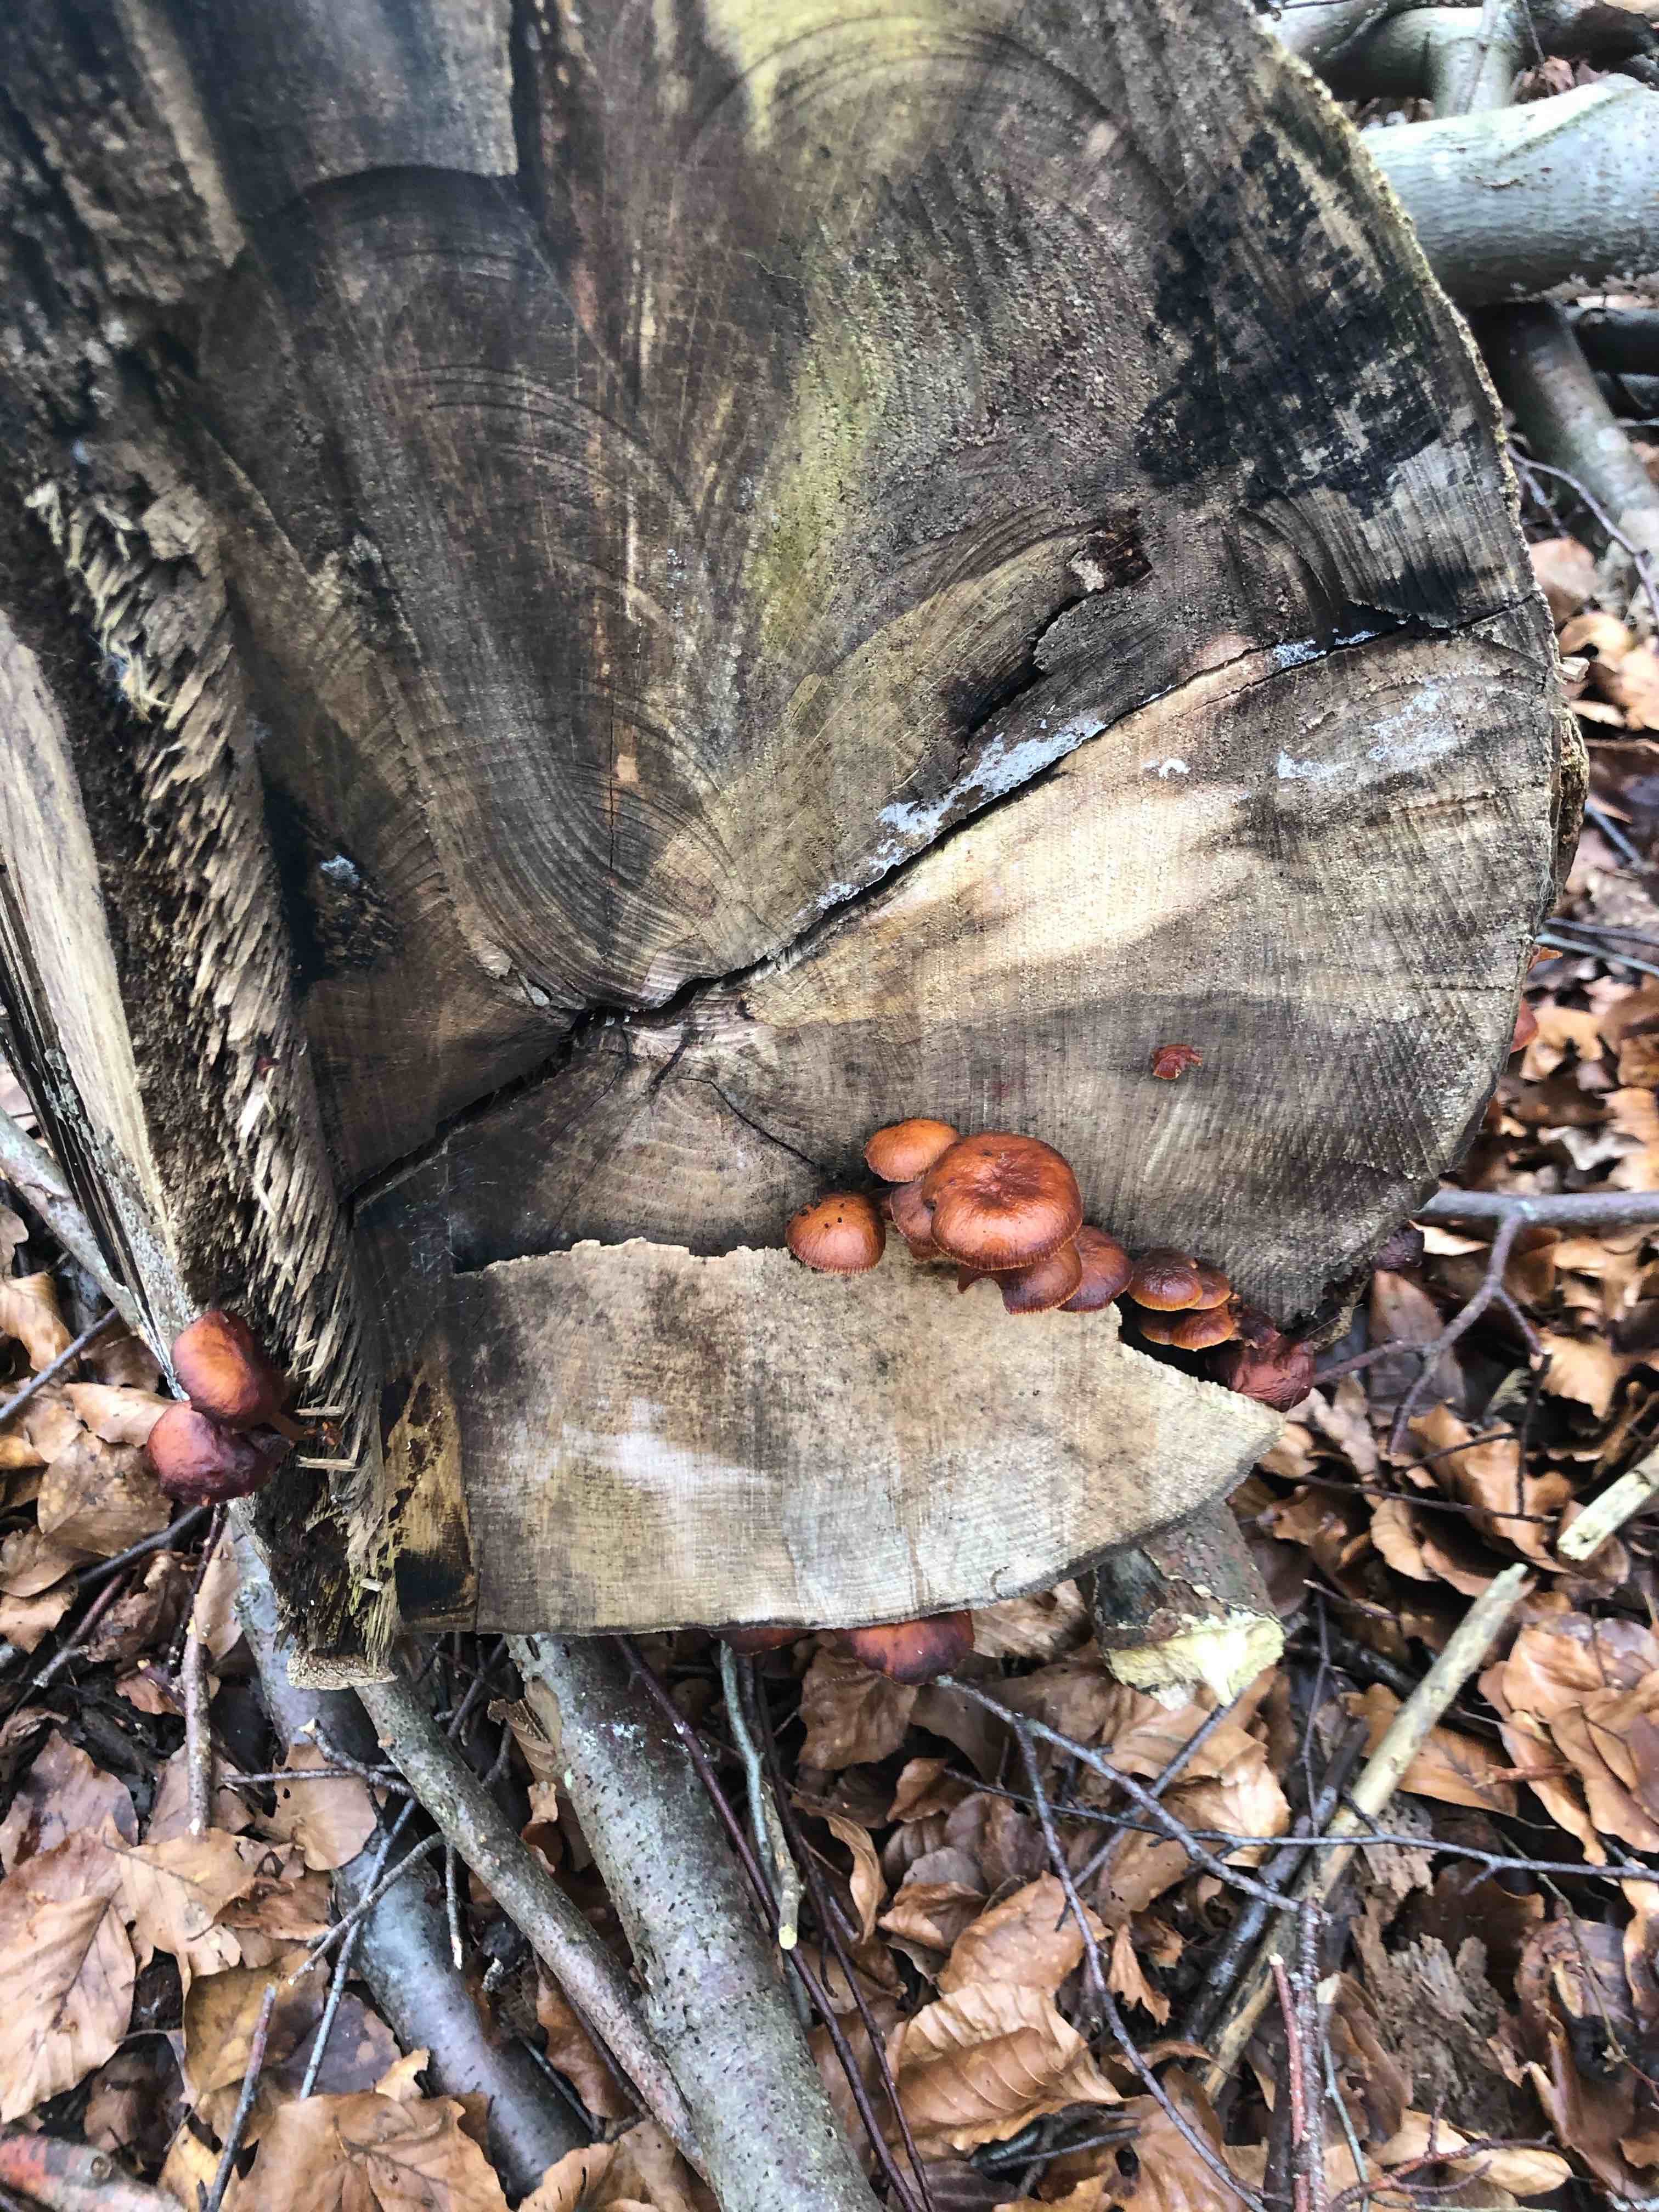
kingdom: Fungi
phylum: Basidiomycota
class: Agaricomycetes
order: Agaricales
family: Physalacriaceae
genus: Flammulina
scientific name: Flammulina velutipes
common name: gul fløjlsfod
